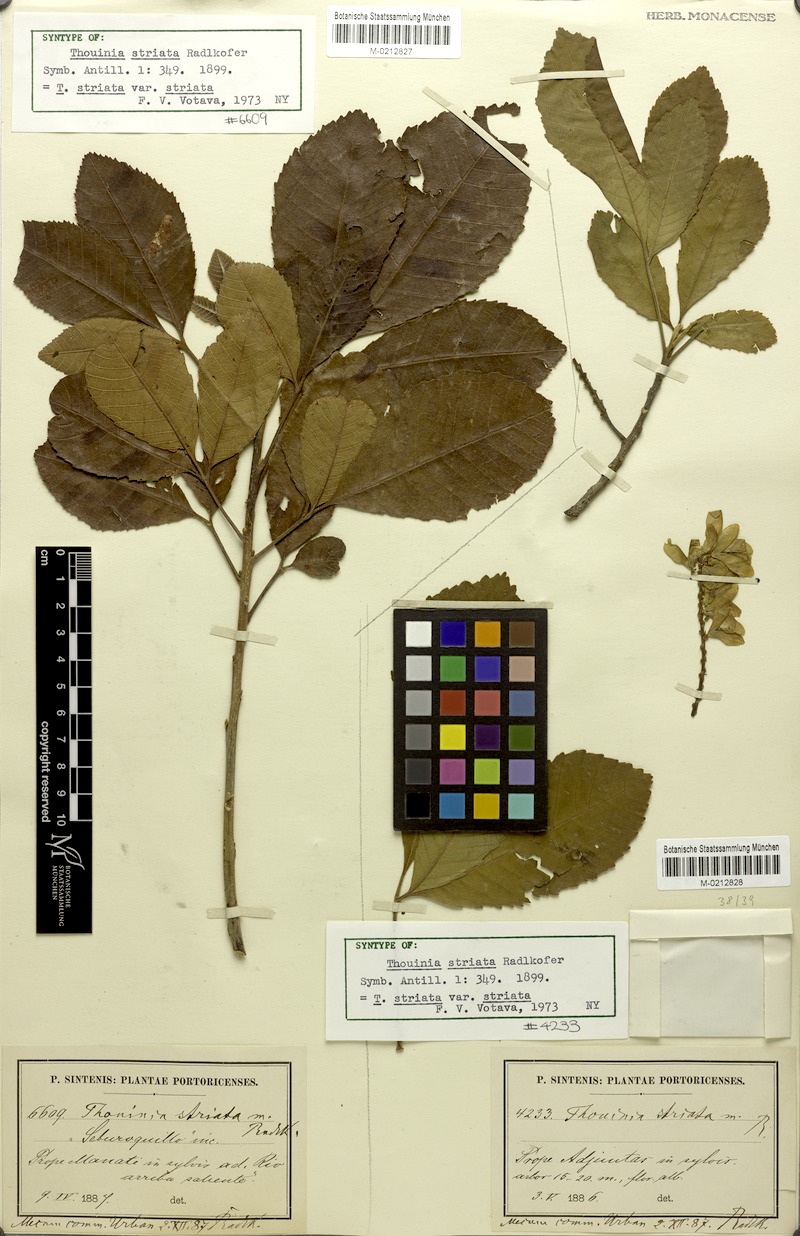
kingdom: Plantae
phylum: Tracheophyta
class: Magnoliopsida
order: Sapindales
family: Sapindaceae
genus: Thouinia
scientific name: Thouinia striata
